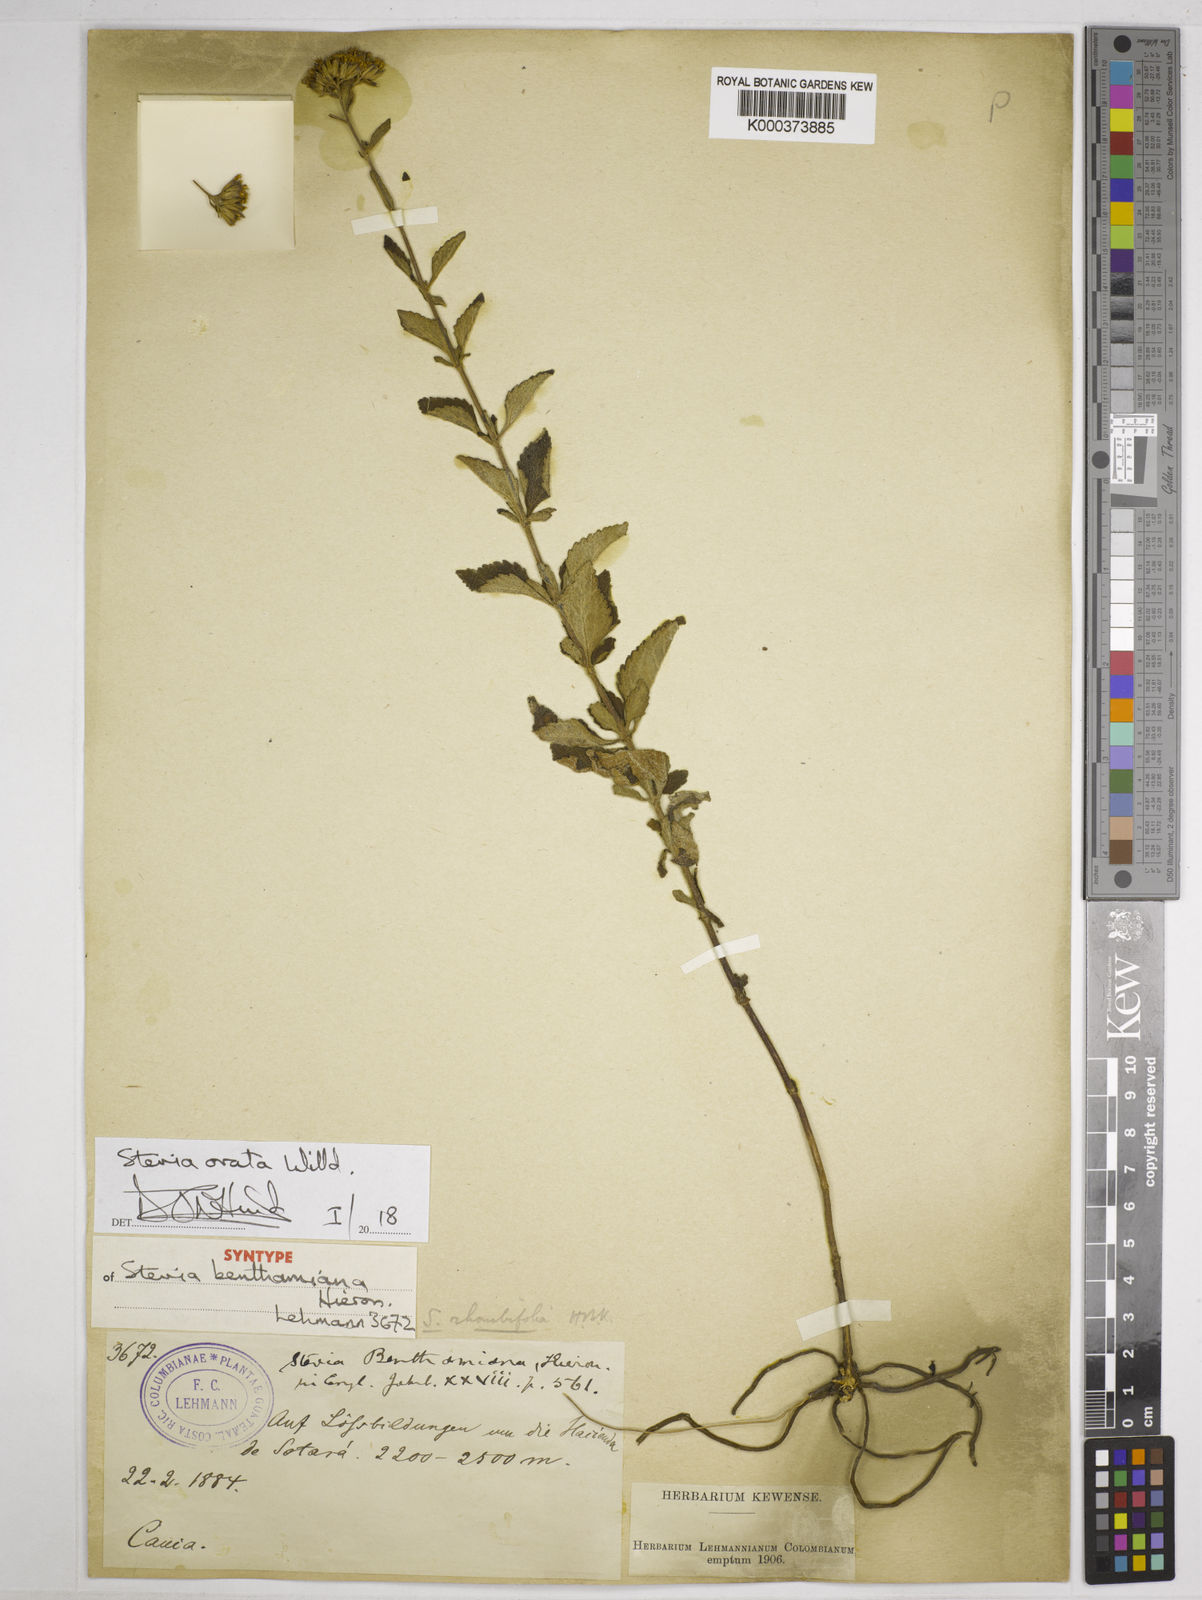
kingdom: Plantae
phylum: Tracheophyta
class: Magnoliopsida
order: Asterales
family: Asteraceae
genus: Stevia
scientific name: Stevia ovata
